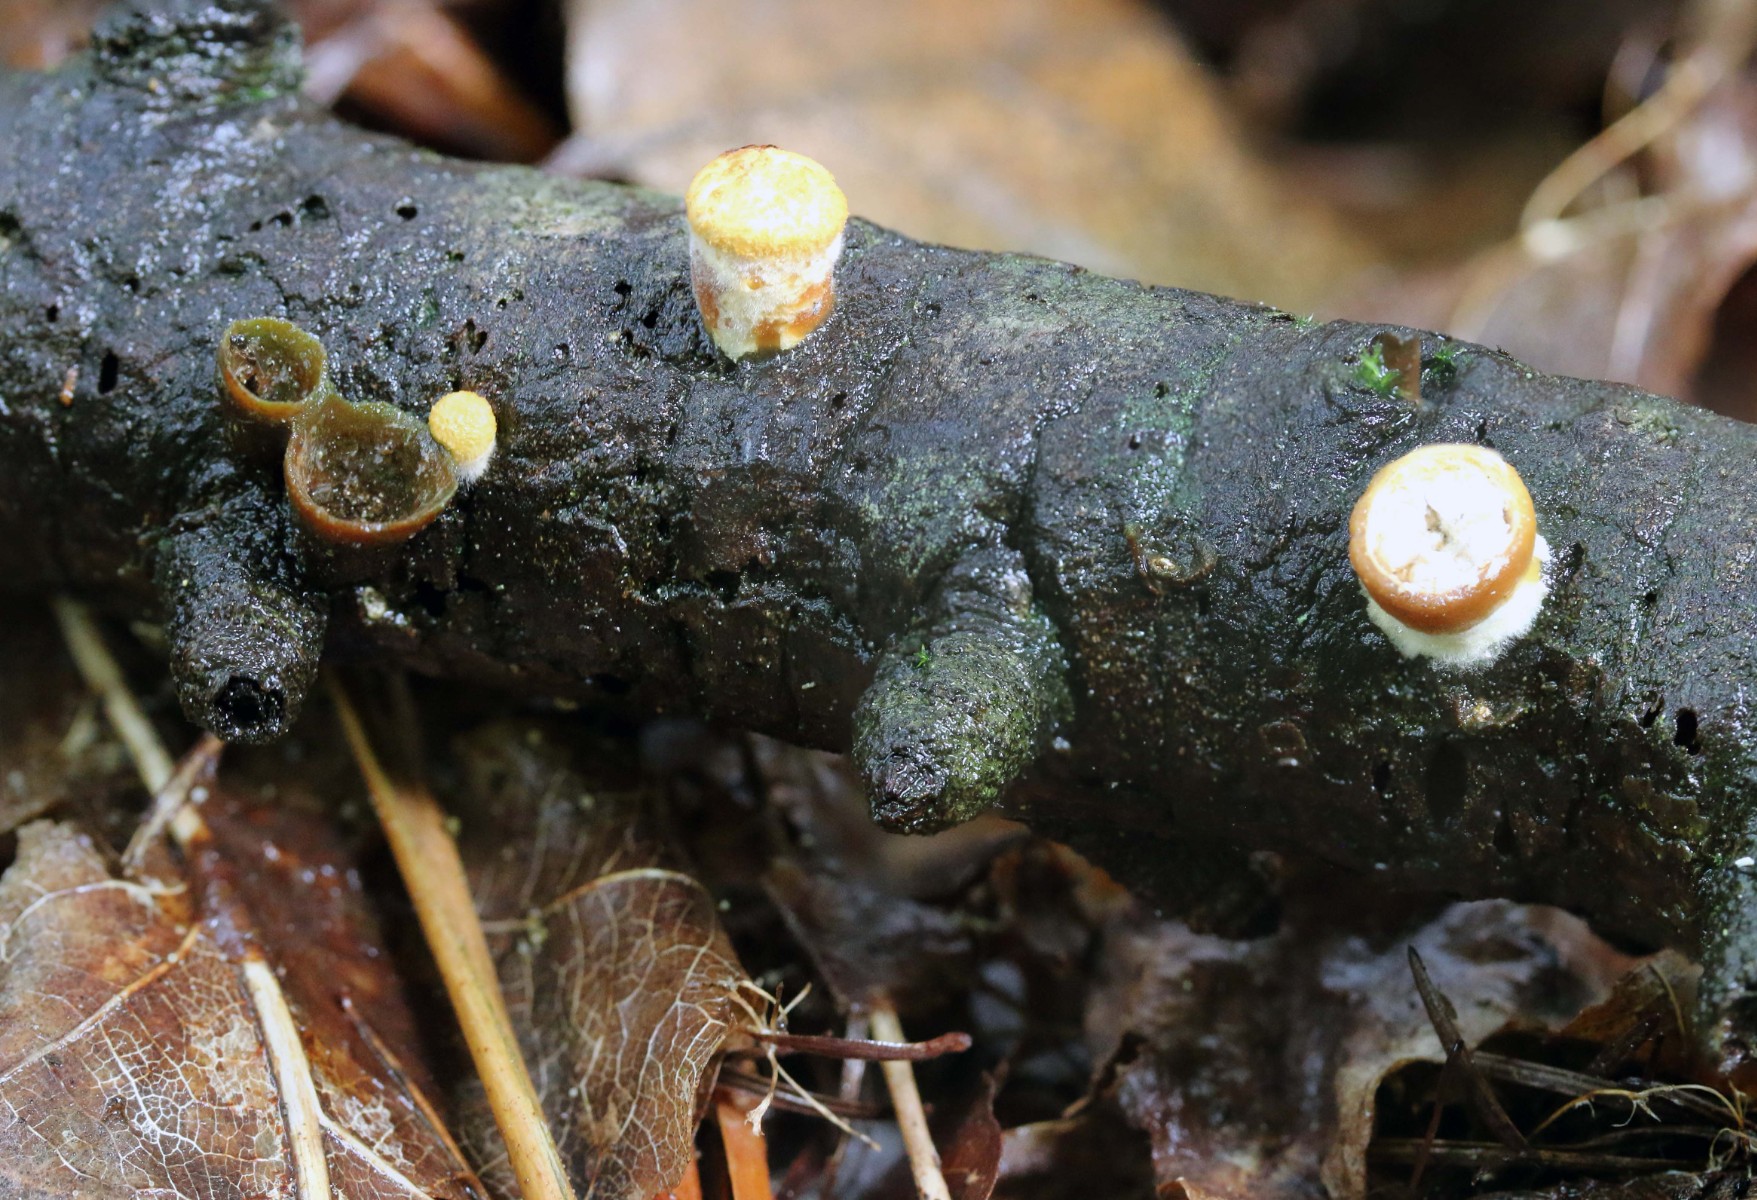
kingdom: Fungi
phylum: Basidiomycota
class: Agaricomycetes
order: Agaricales
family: Nidulariaceae
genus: Crucibulum
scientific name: Crucibulum crucibuliforme
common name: krukkesvamp
